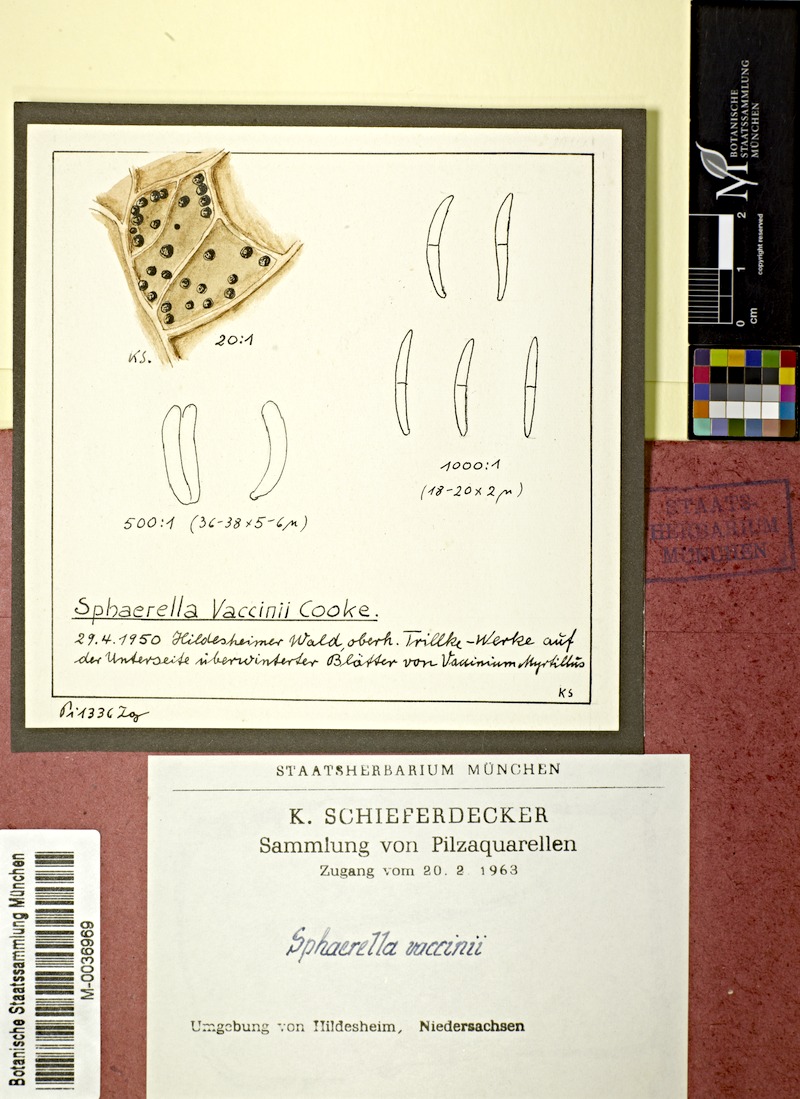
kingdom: Plantae
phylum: Tracheophyta
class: Magnoliopsida
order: Ericales
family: Ericaceae
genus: Vaccinium
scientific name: Vaccinium myrtillus
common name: Bilberry
